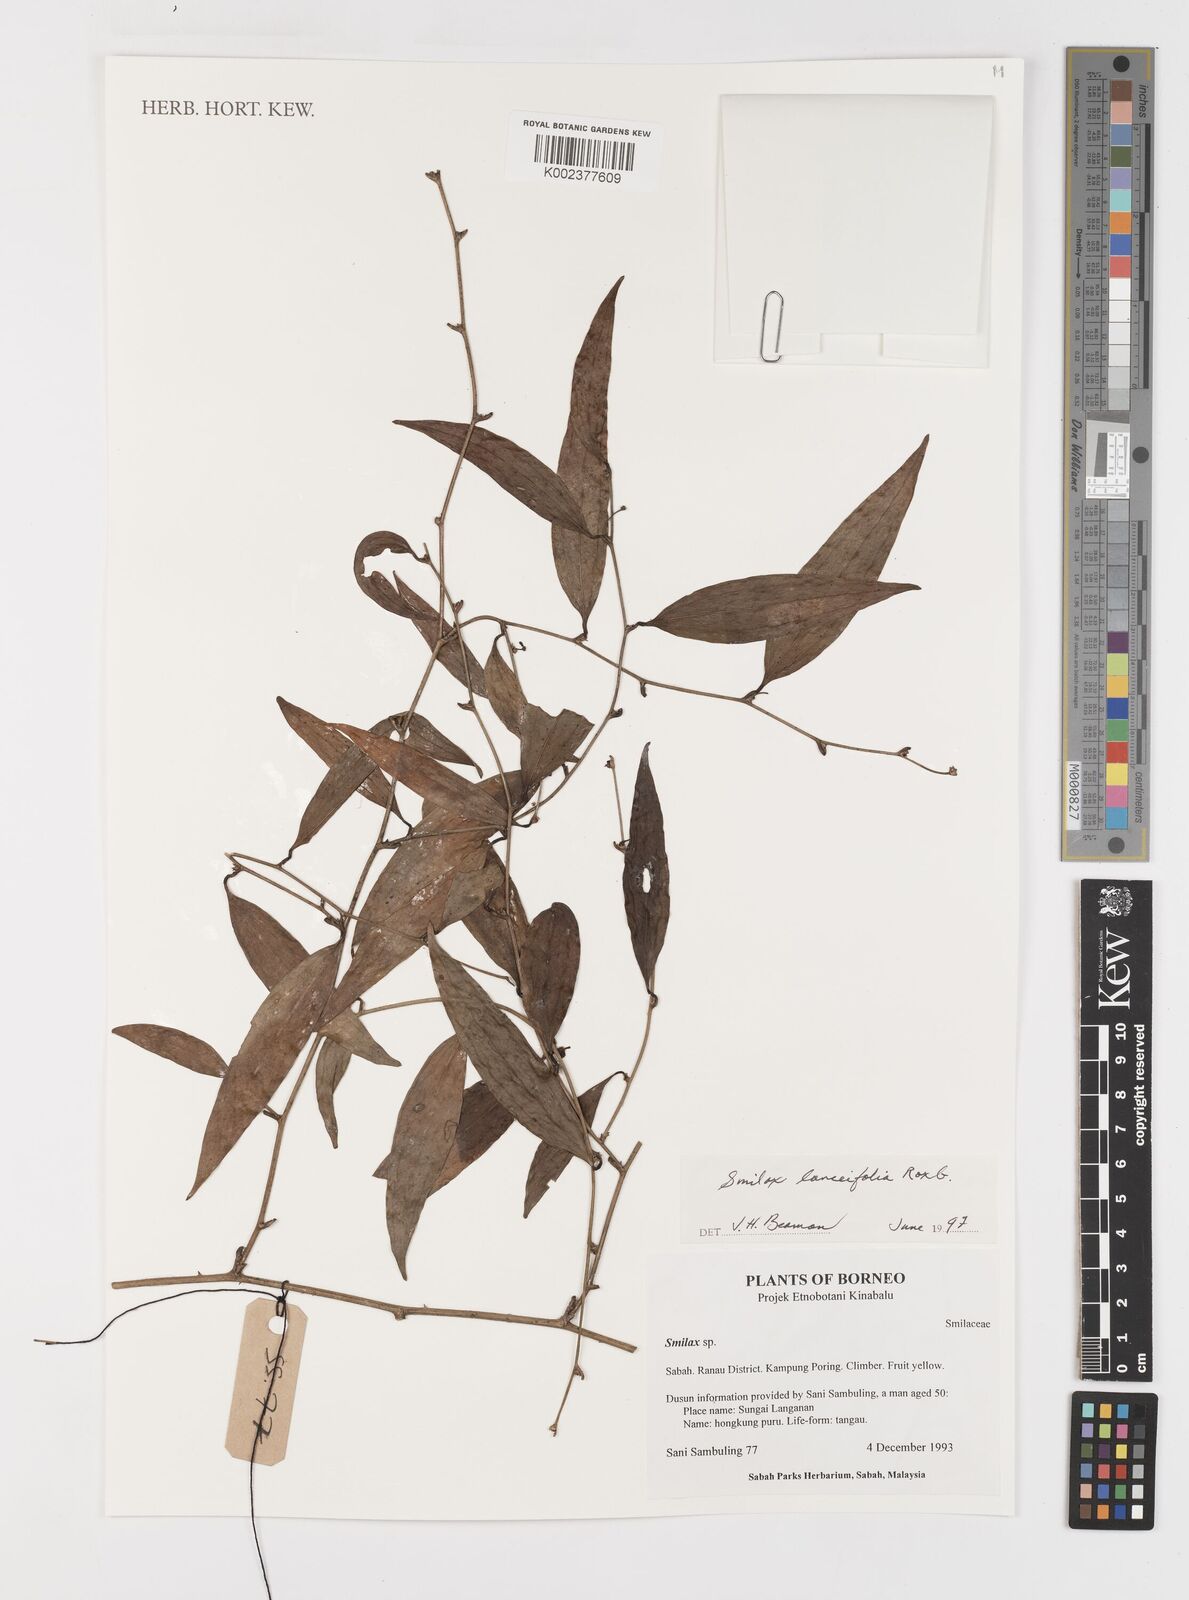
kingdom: Plantae
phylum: Tracheophyta
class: Liliopsida
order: Liliales
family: Smilacaceae
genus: Smilax
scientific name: Smilax lanceifolia
